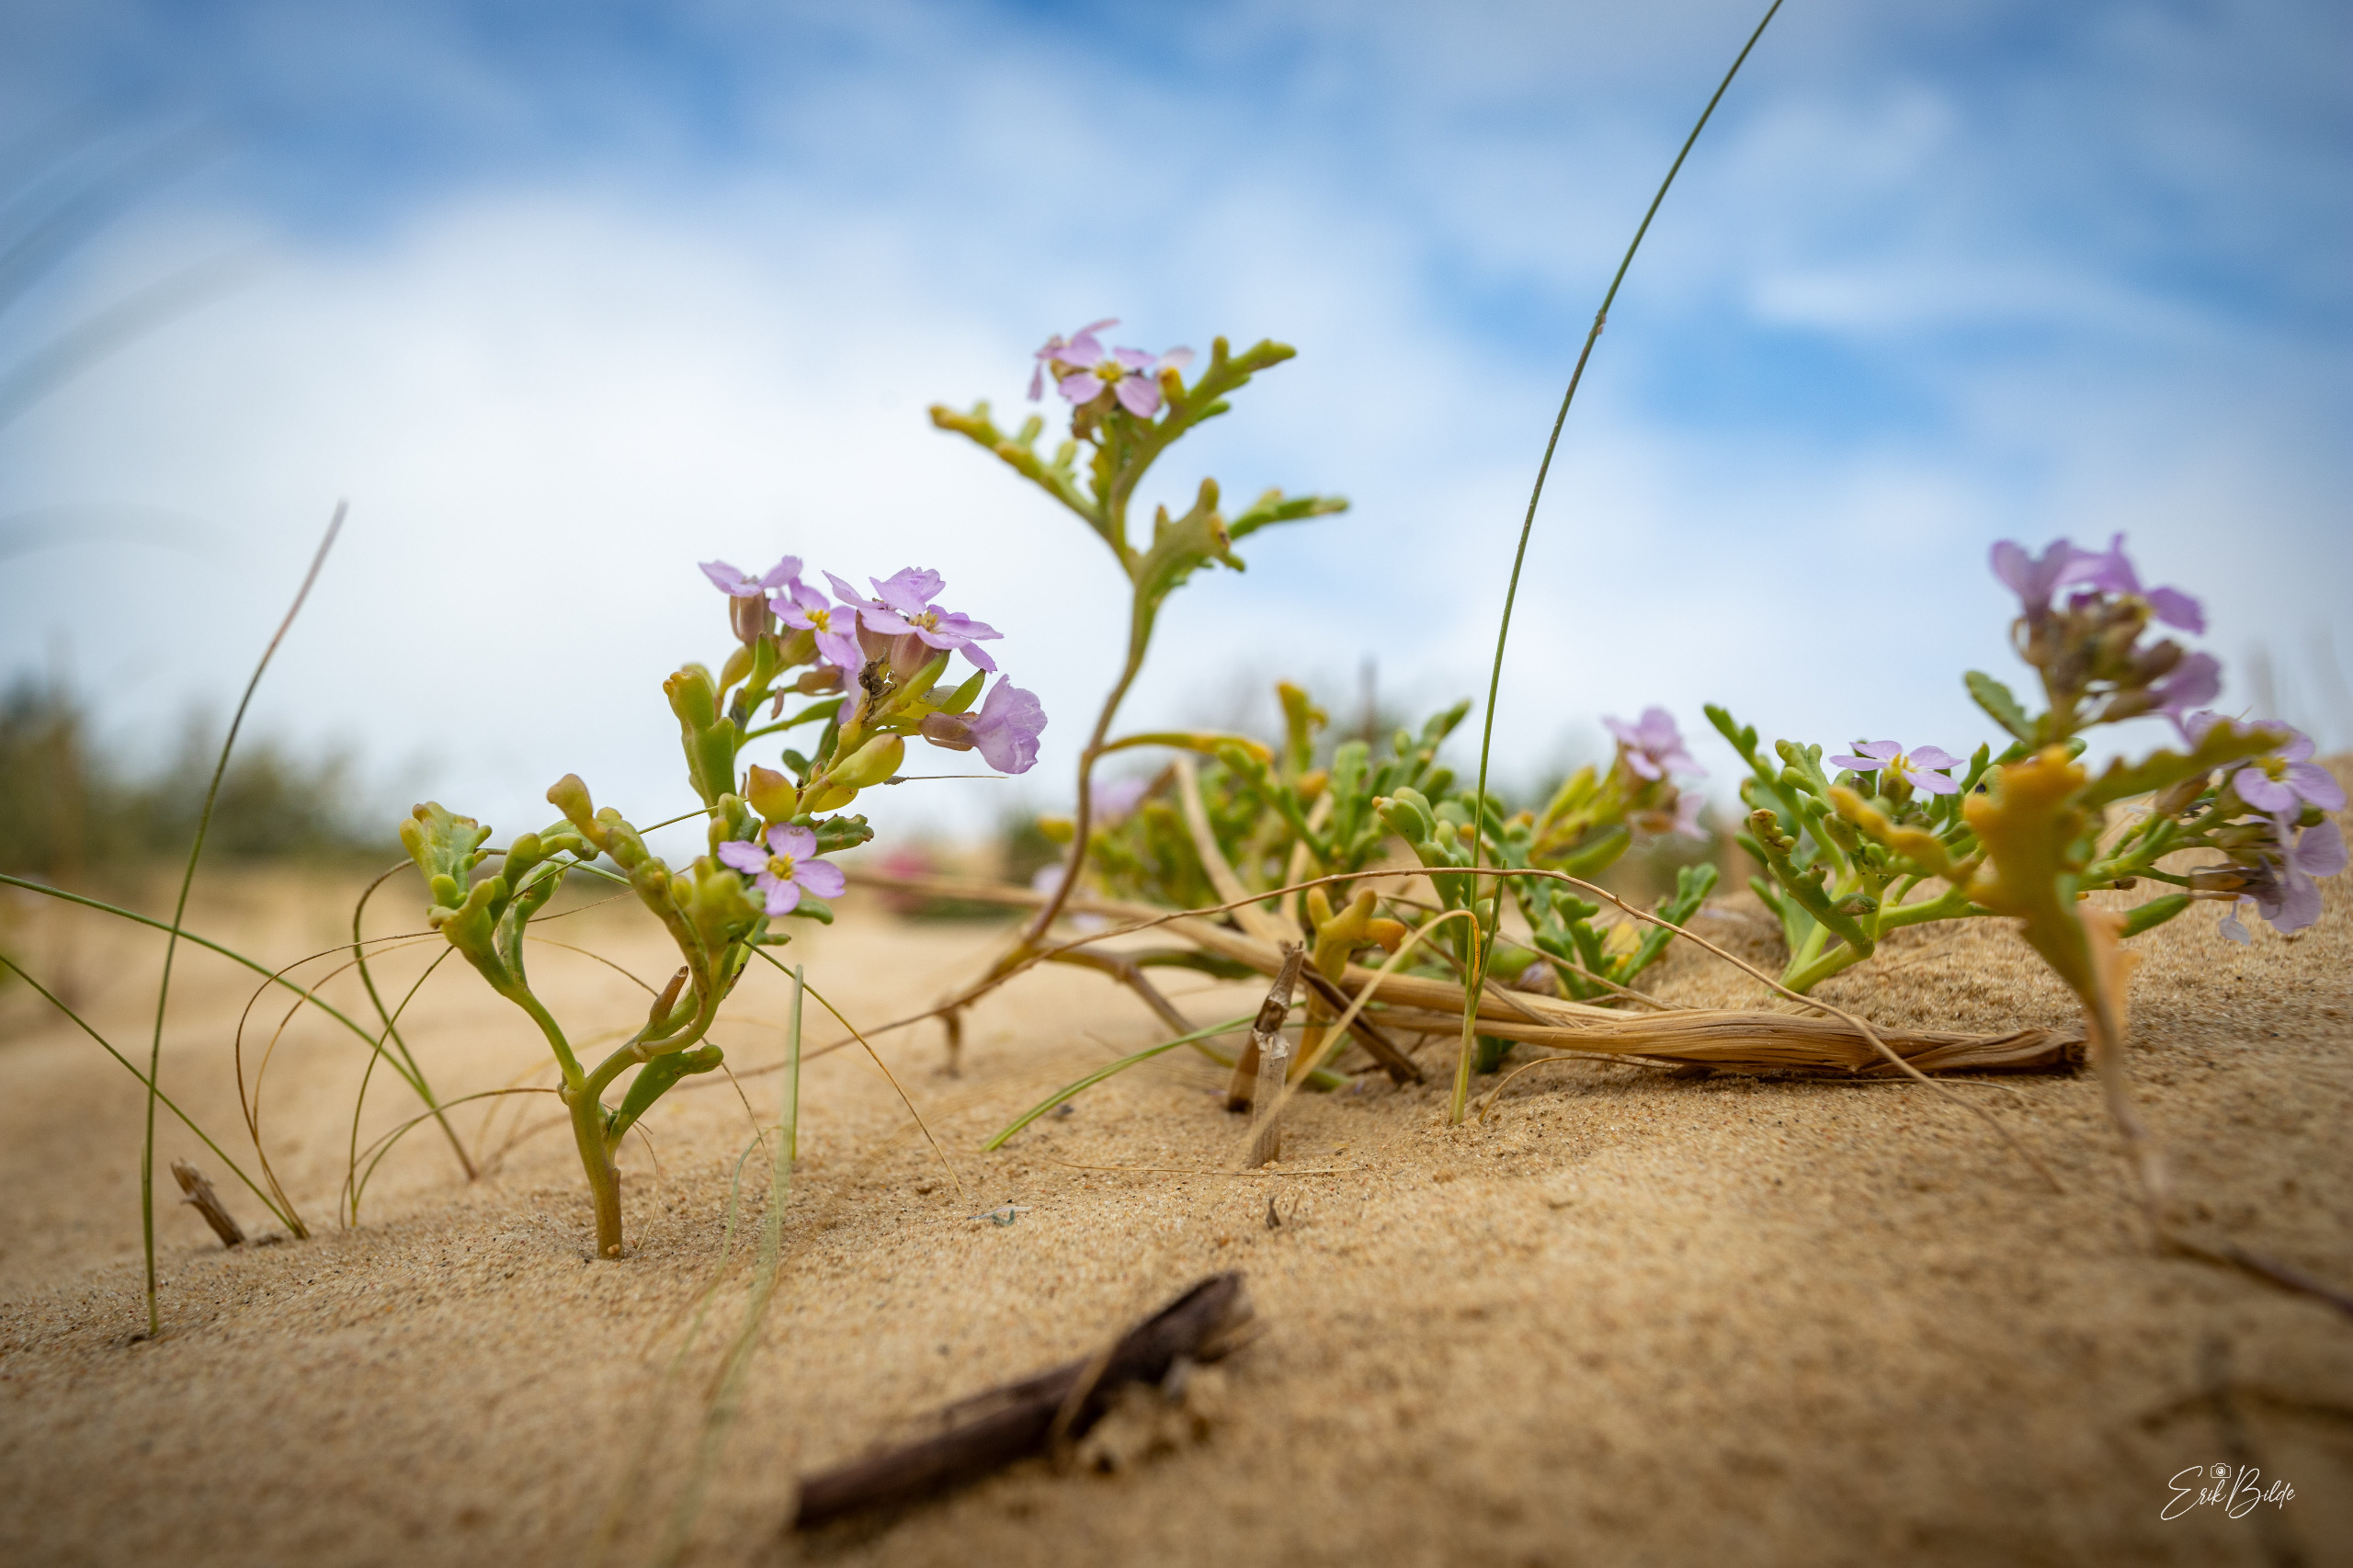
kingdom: Plantae
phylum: Tracheophyta
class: Magnoliopsida
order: Brassicales
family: Brassicaceae
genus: Cakile
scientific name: Cakile maritima
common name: Strandsennep
